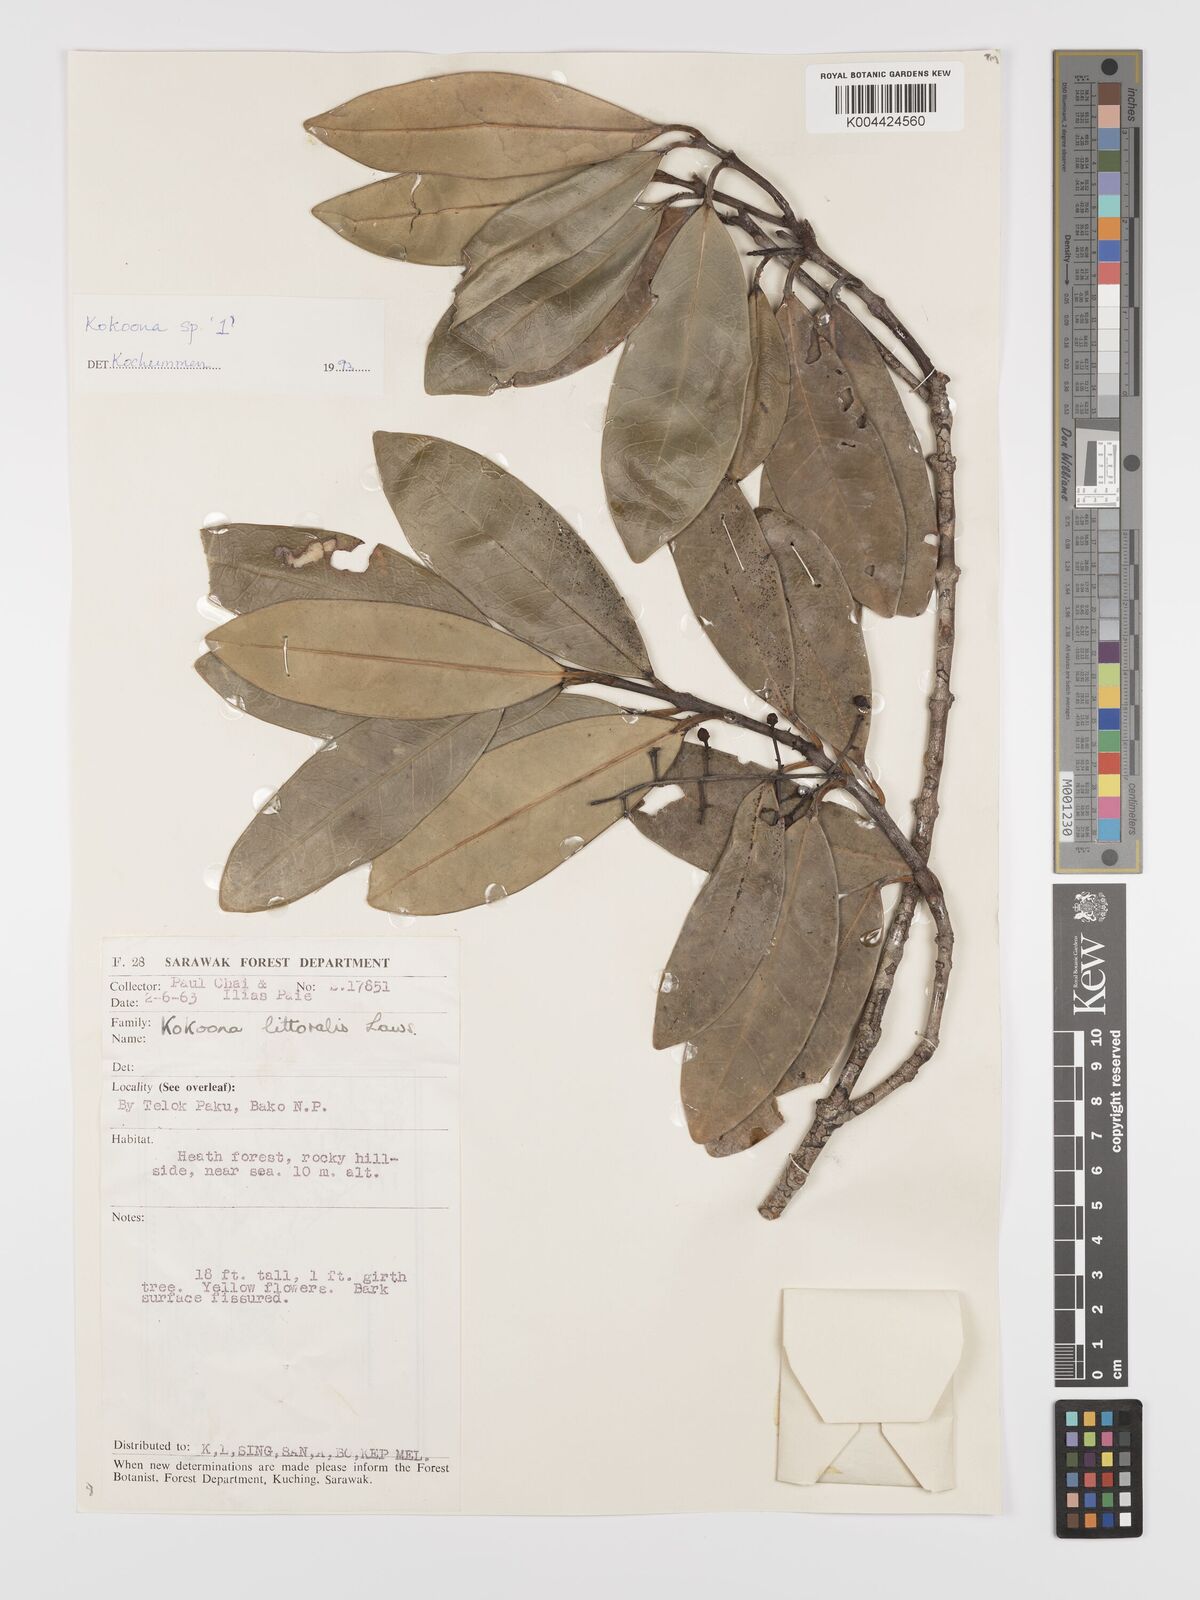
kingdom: Plantae
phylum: Tracheophyta
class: Magnoliopsida
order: Celastrales
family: Celastraceae
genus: Kokoona
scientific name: Kokoona littoralis
